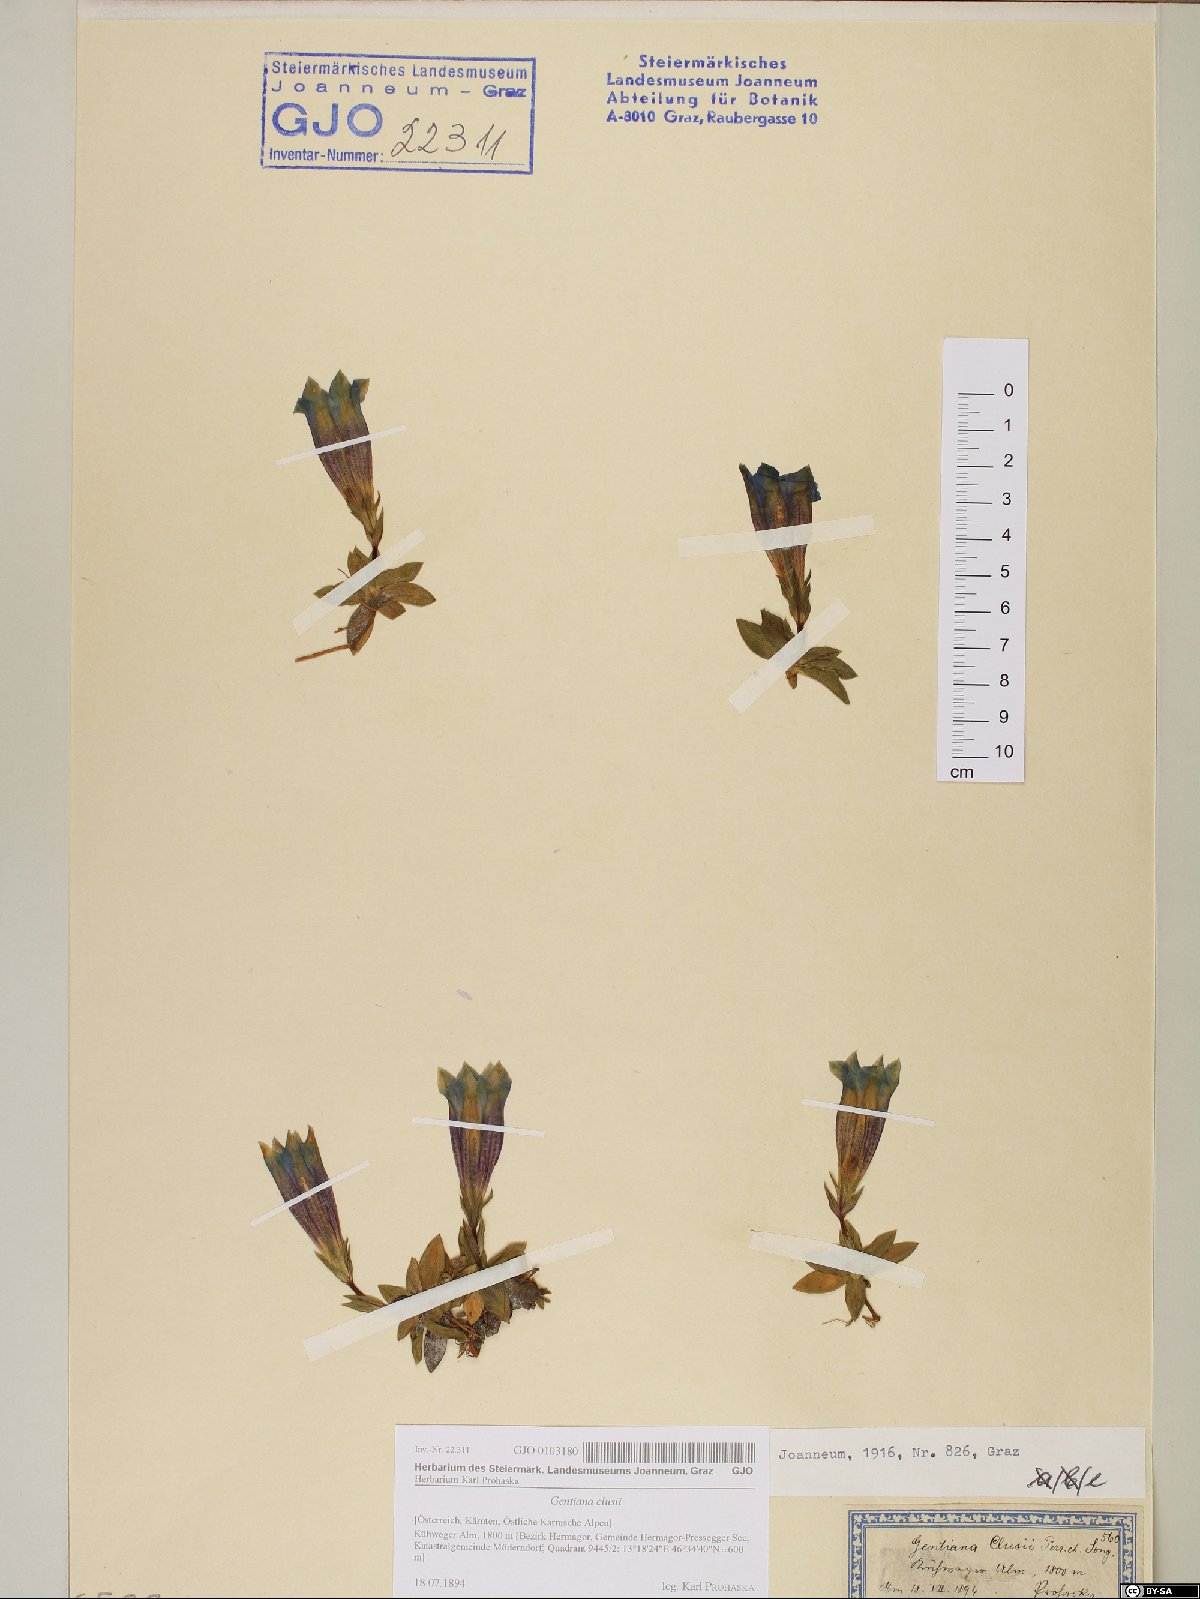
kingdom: Plantae
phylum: Tracheophyta
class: Magnoliopsida
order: Gentianales
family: Gentianaceae
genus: Gentiana
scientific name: Gentiana clusii
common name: Trumpet gentian
